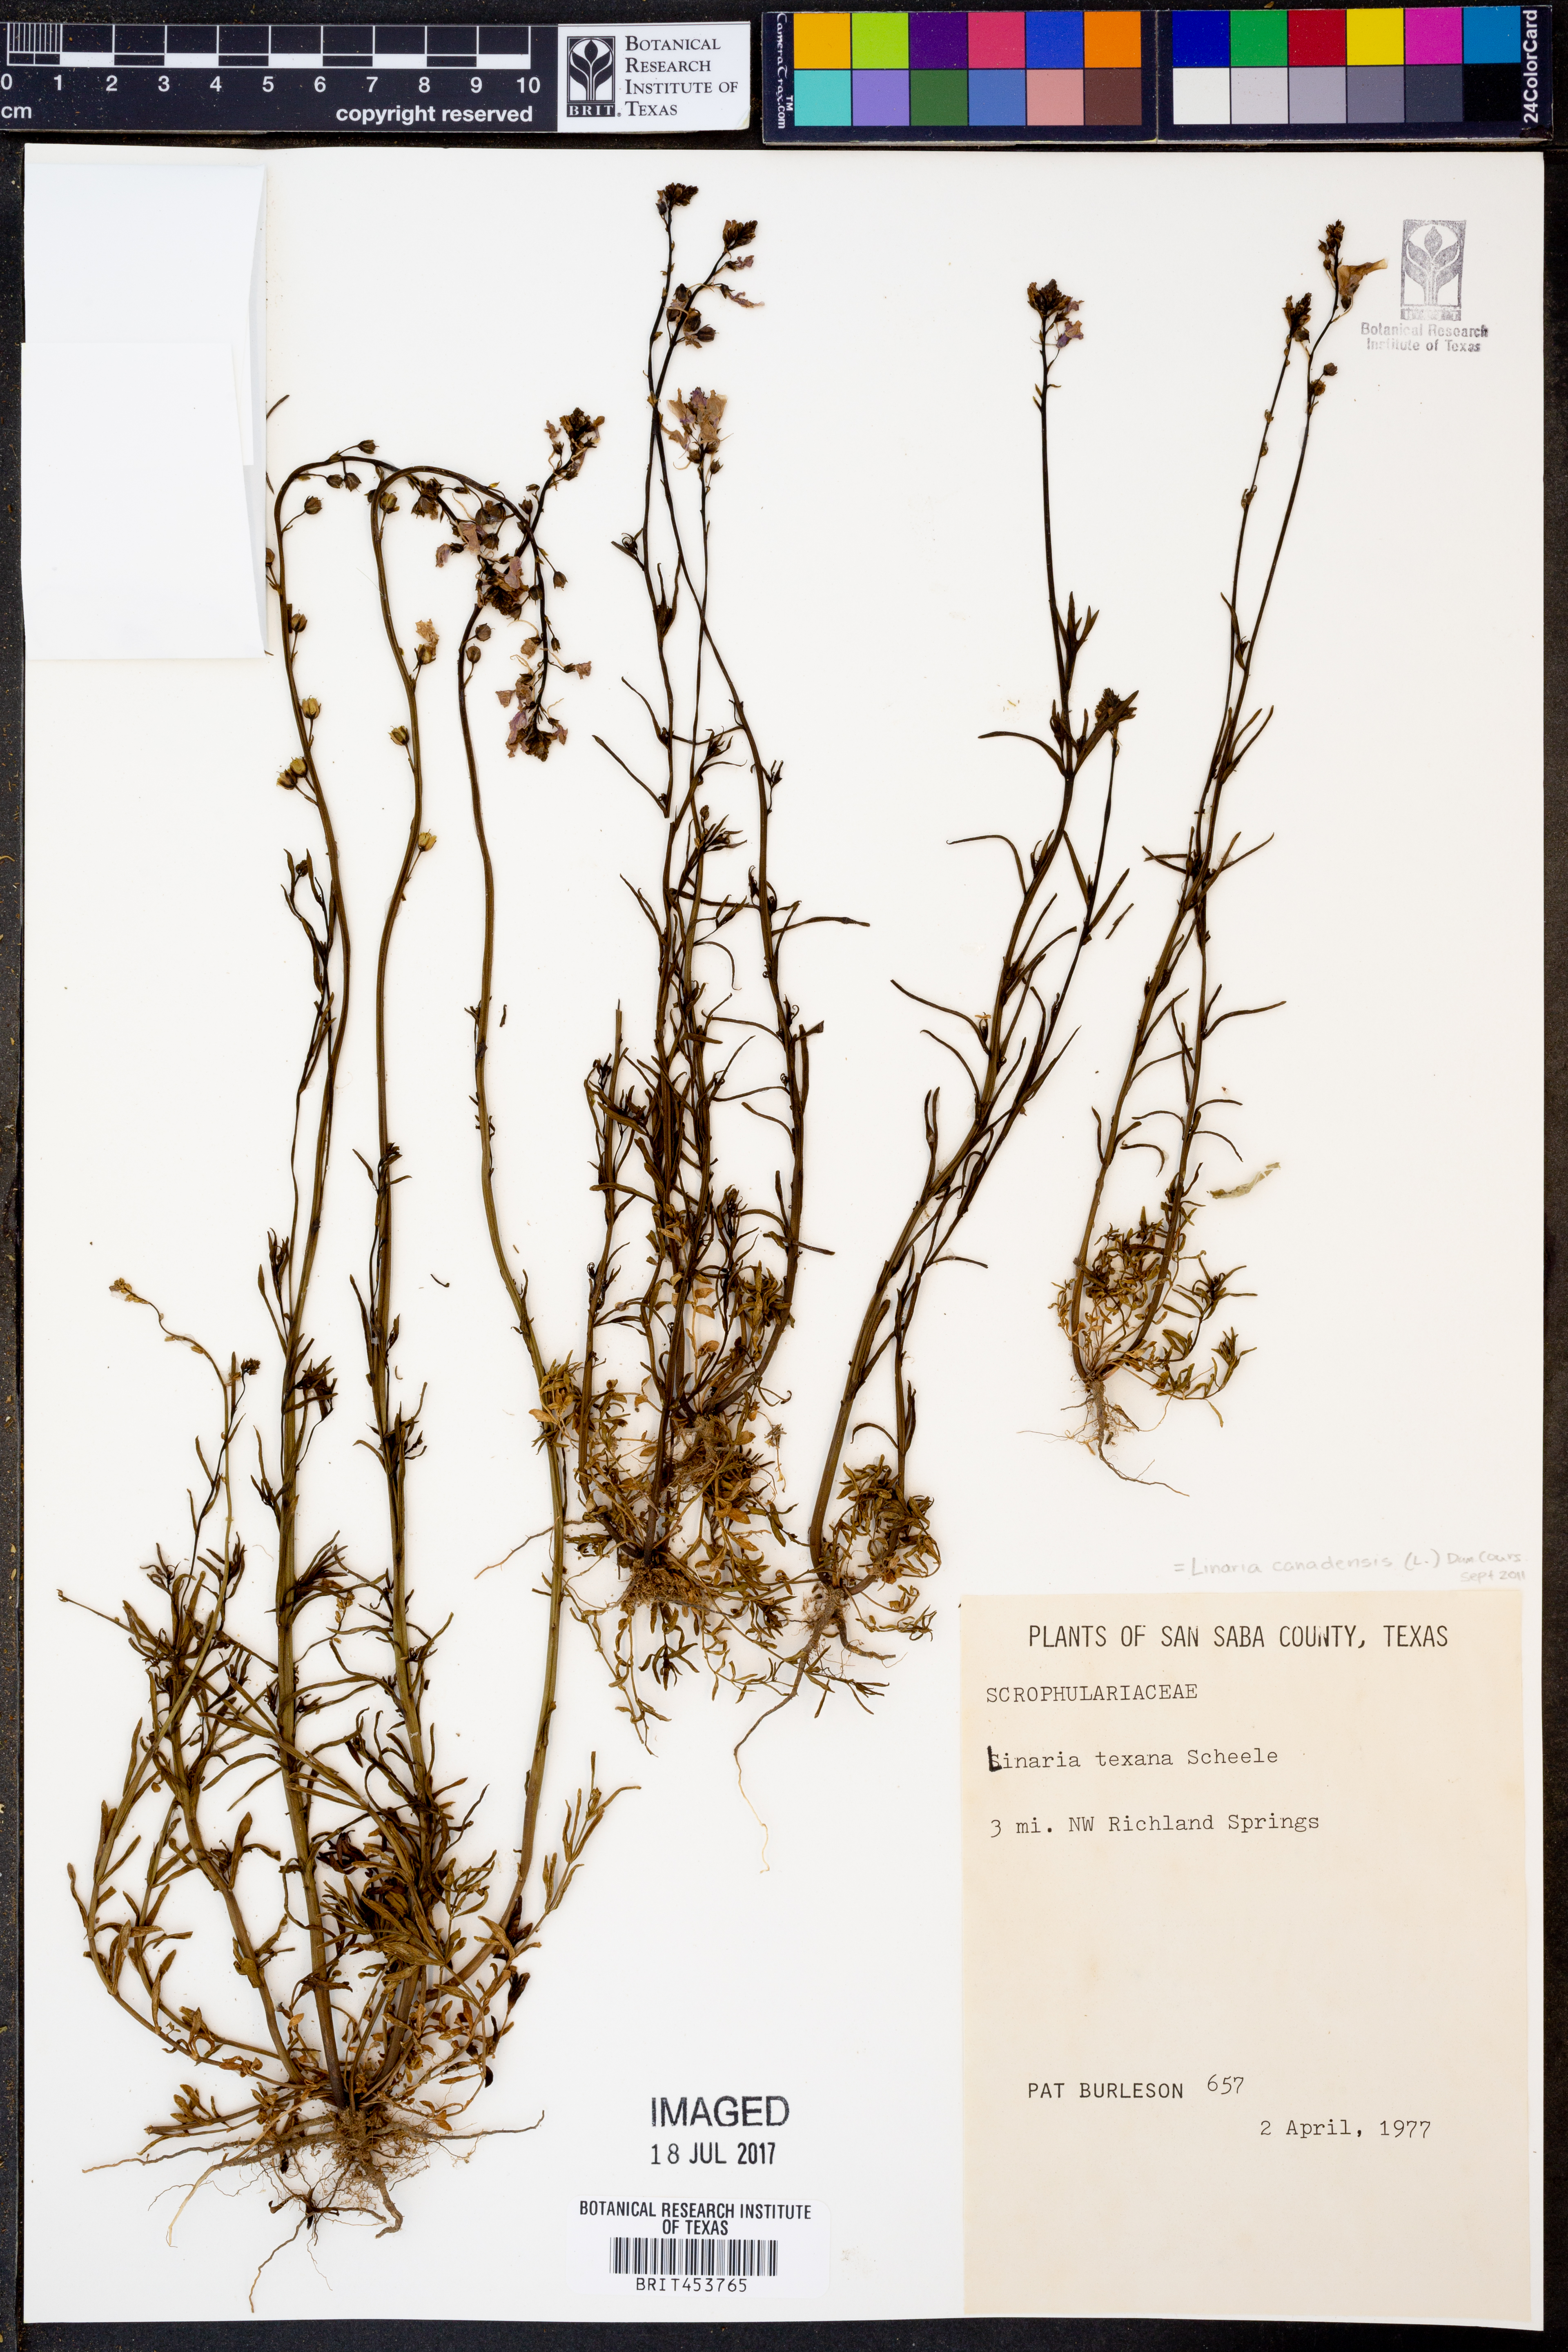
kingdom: Plantae
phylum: Tracheophyta
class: Magnoliopsida
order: Lamiales
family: Plantaginaceae
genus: Nuttallanthus
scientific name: Nuttallanthus texanus
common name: Texas toadflax
